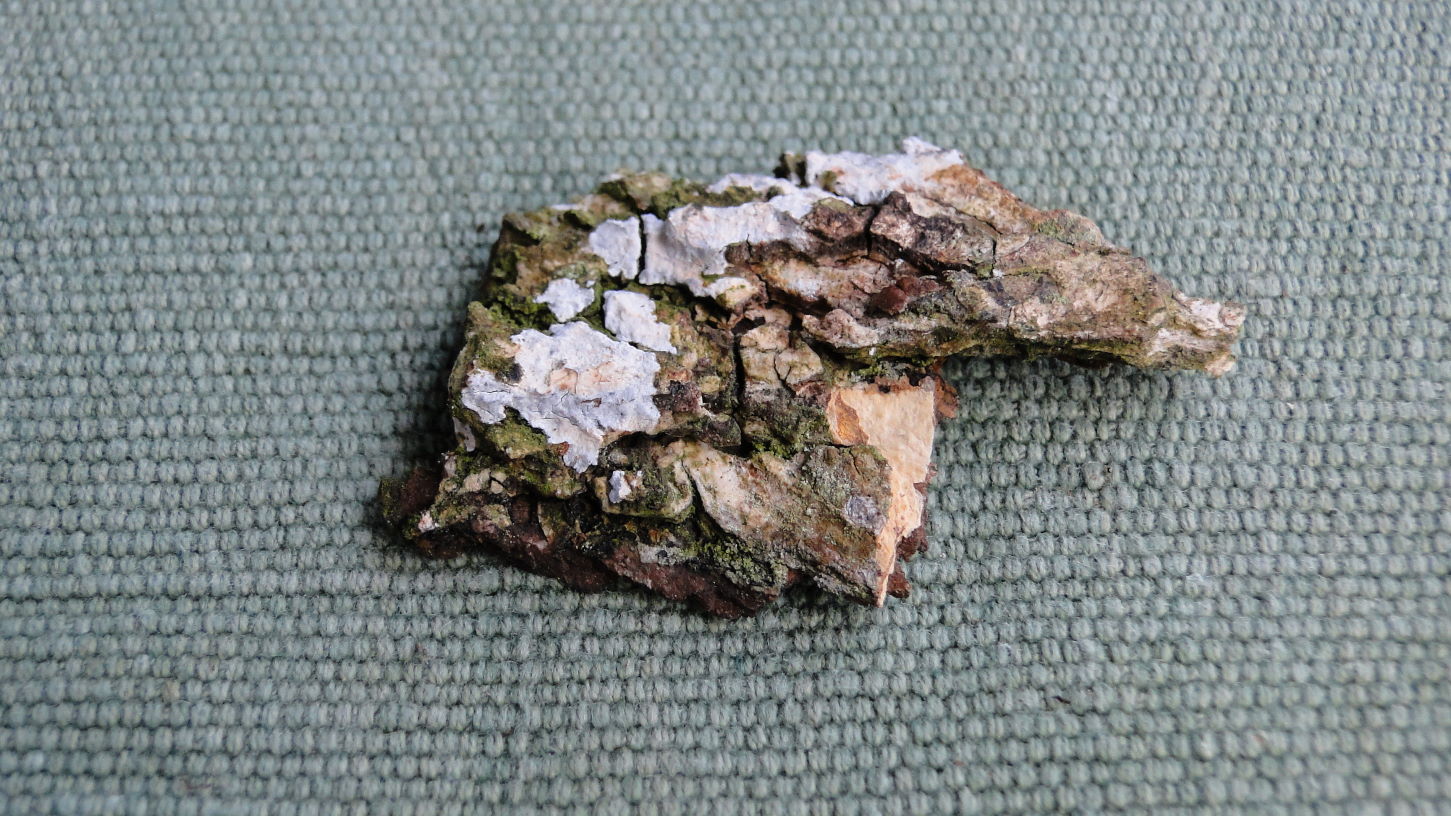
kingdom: Fungi
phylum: Basidiomycota
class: Agaricomycetes
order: Agaricales
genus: Dendrothele
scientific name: Dendrothele acerina
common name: navr-kalkplet
